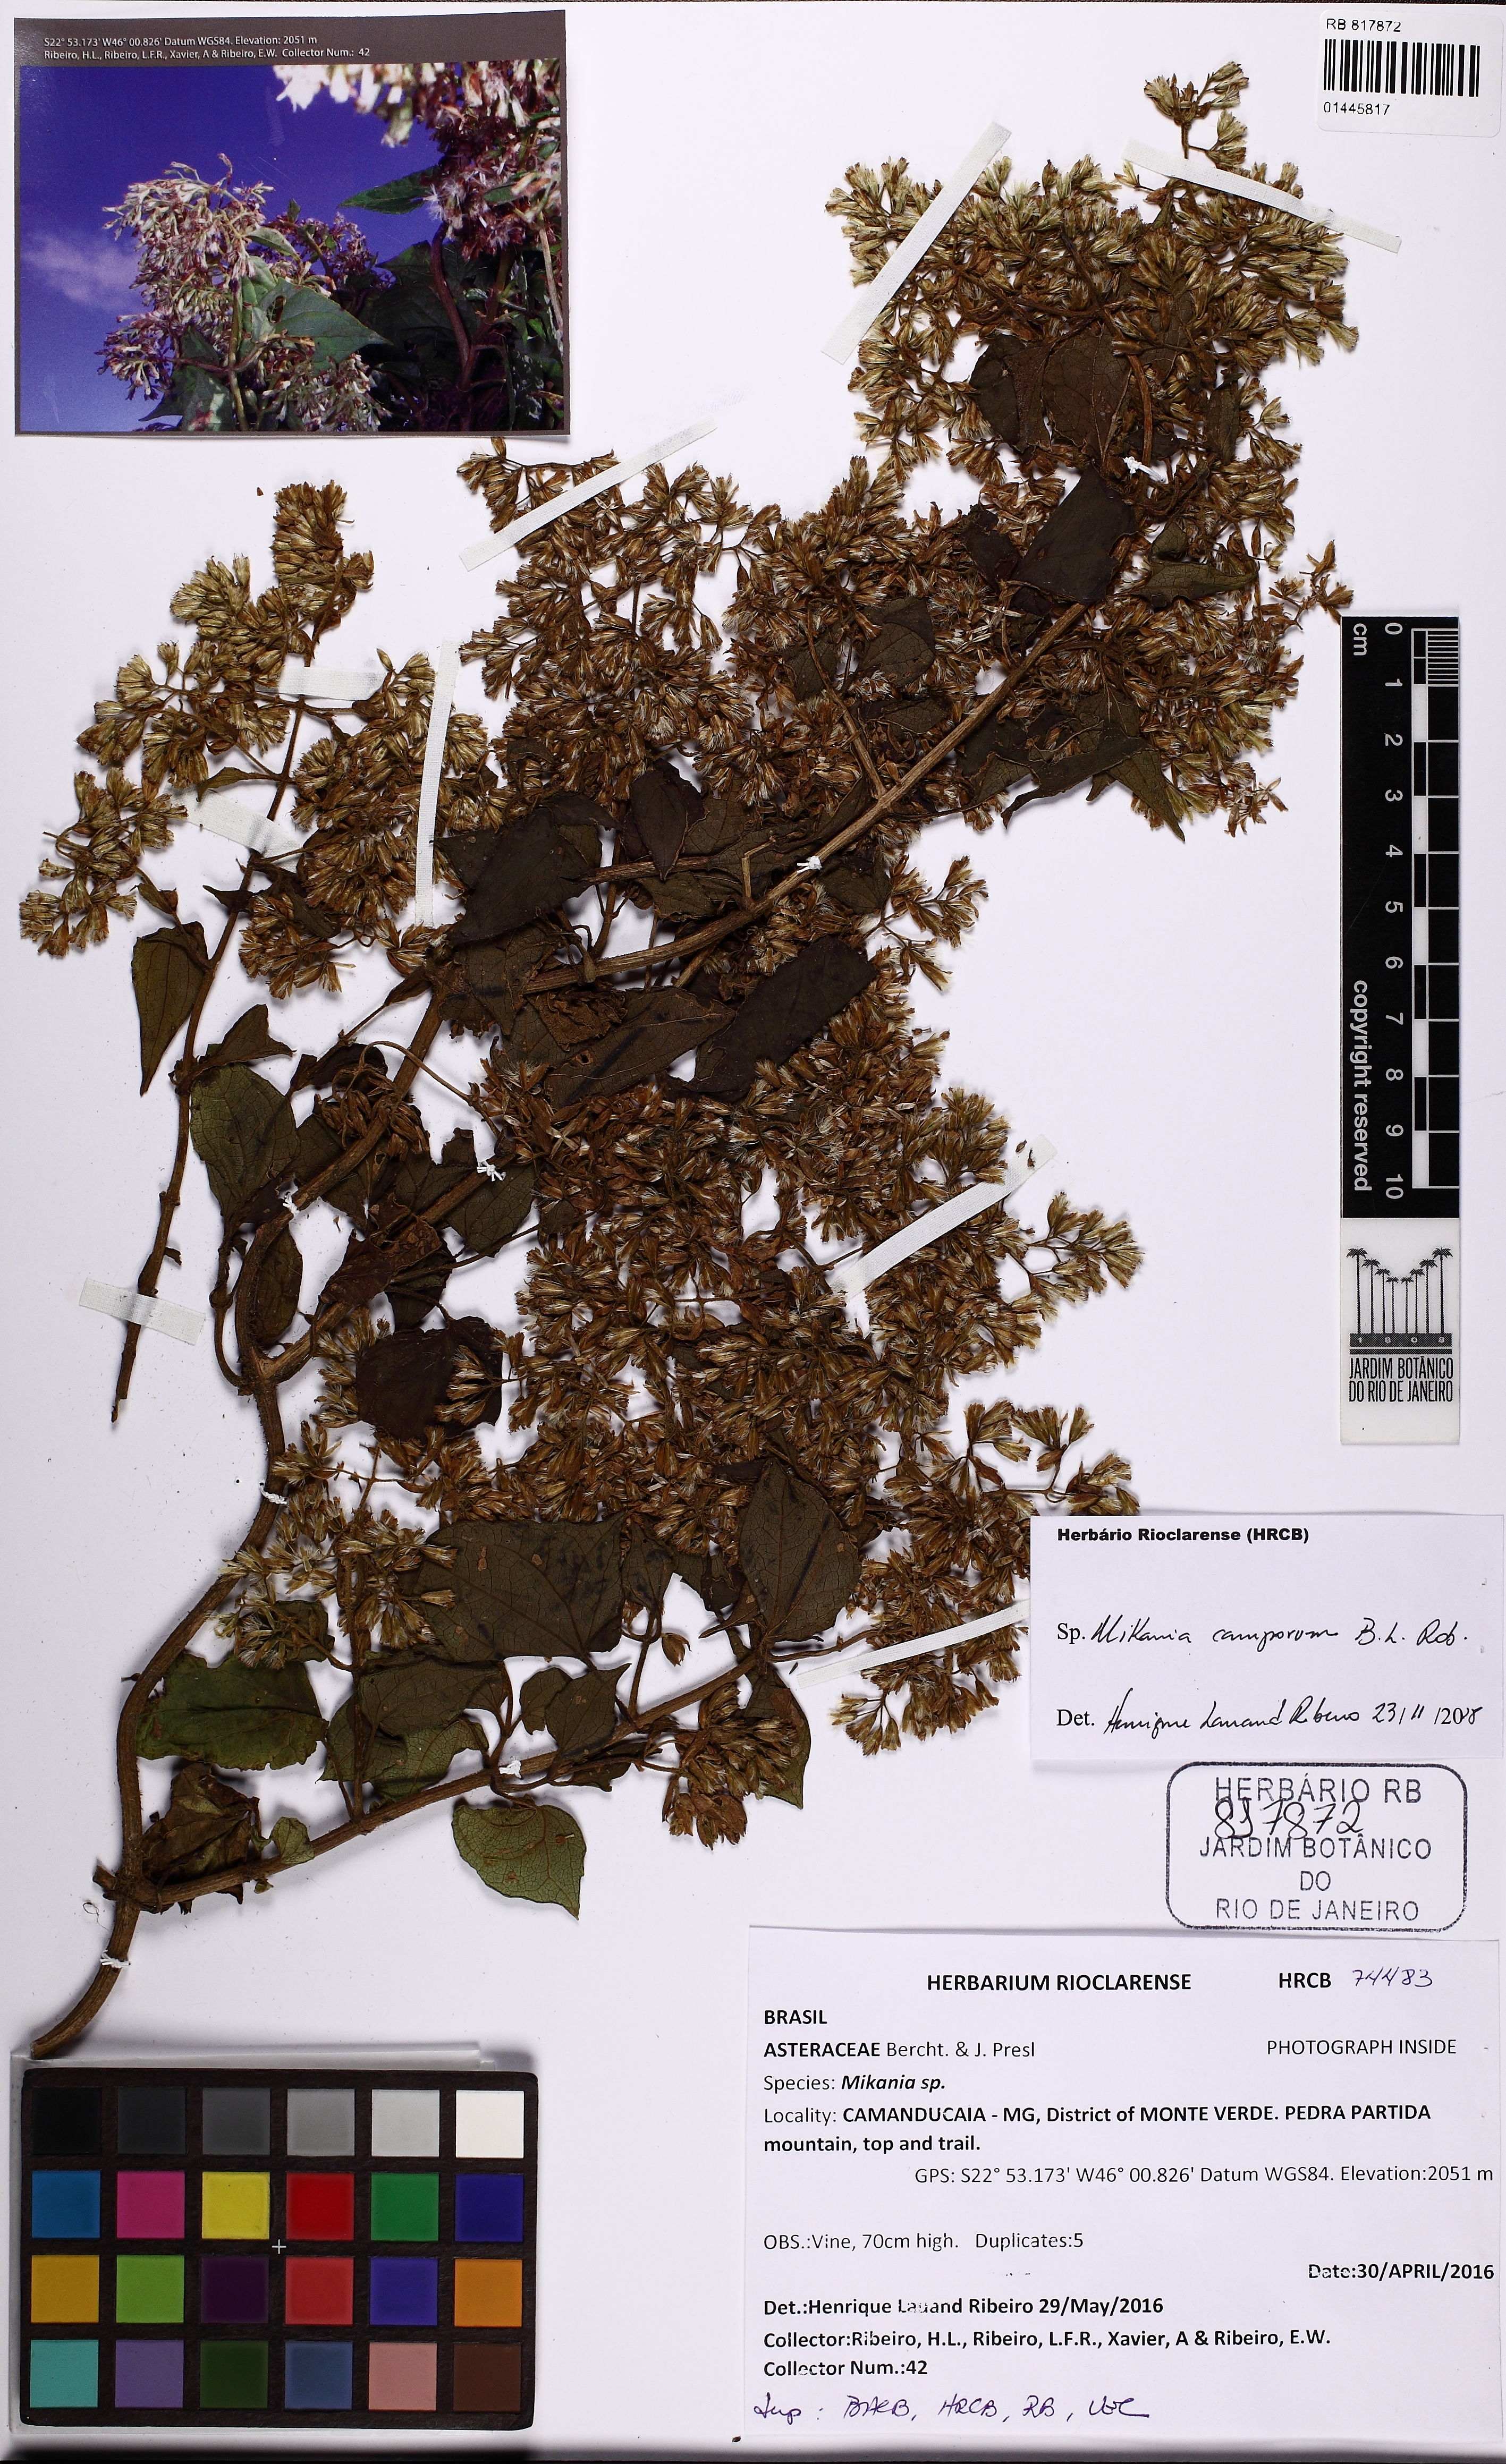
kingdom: Plantae
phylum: Tracheophyta
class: Magnoliopsida
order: Asterales
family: Asteraceae
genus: Mikania
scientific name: Mikania camporum
